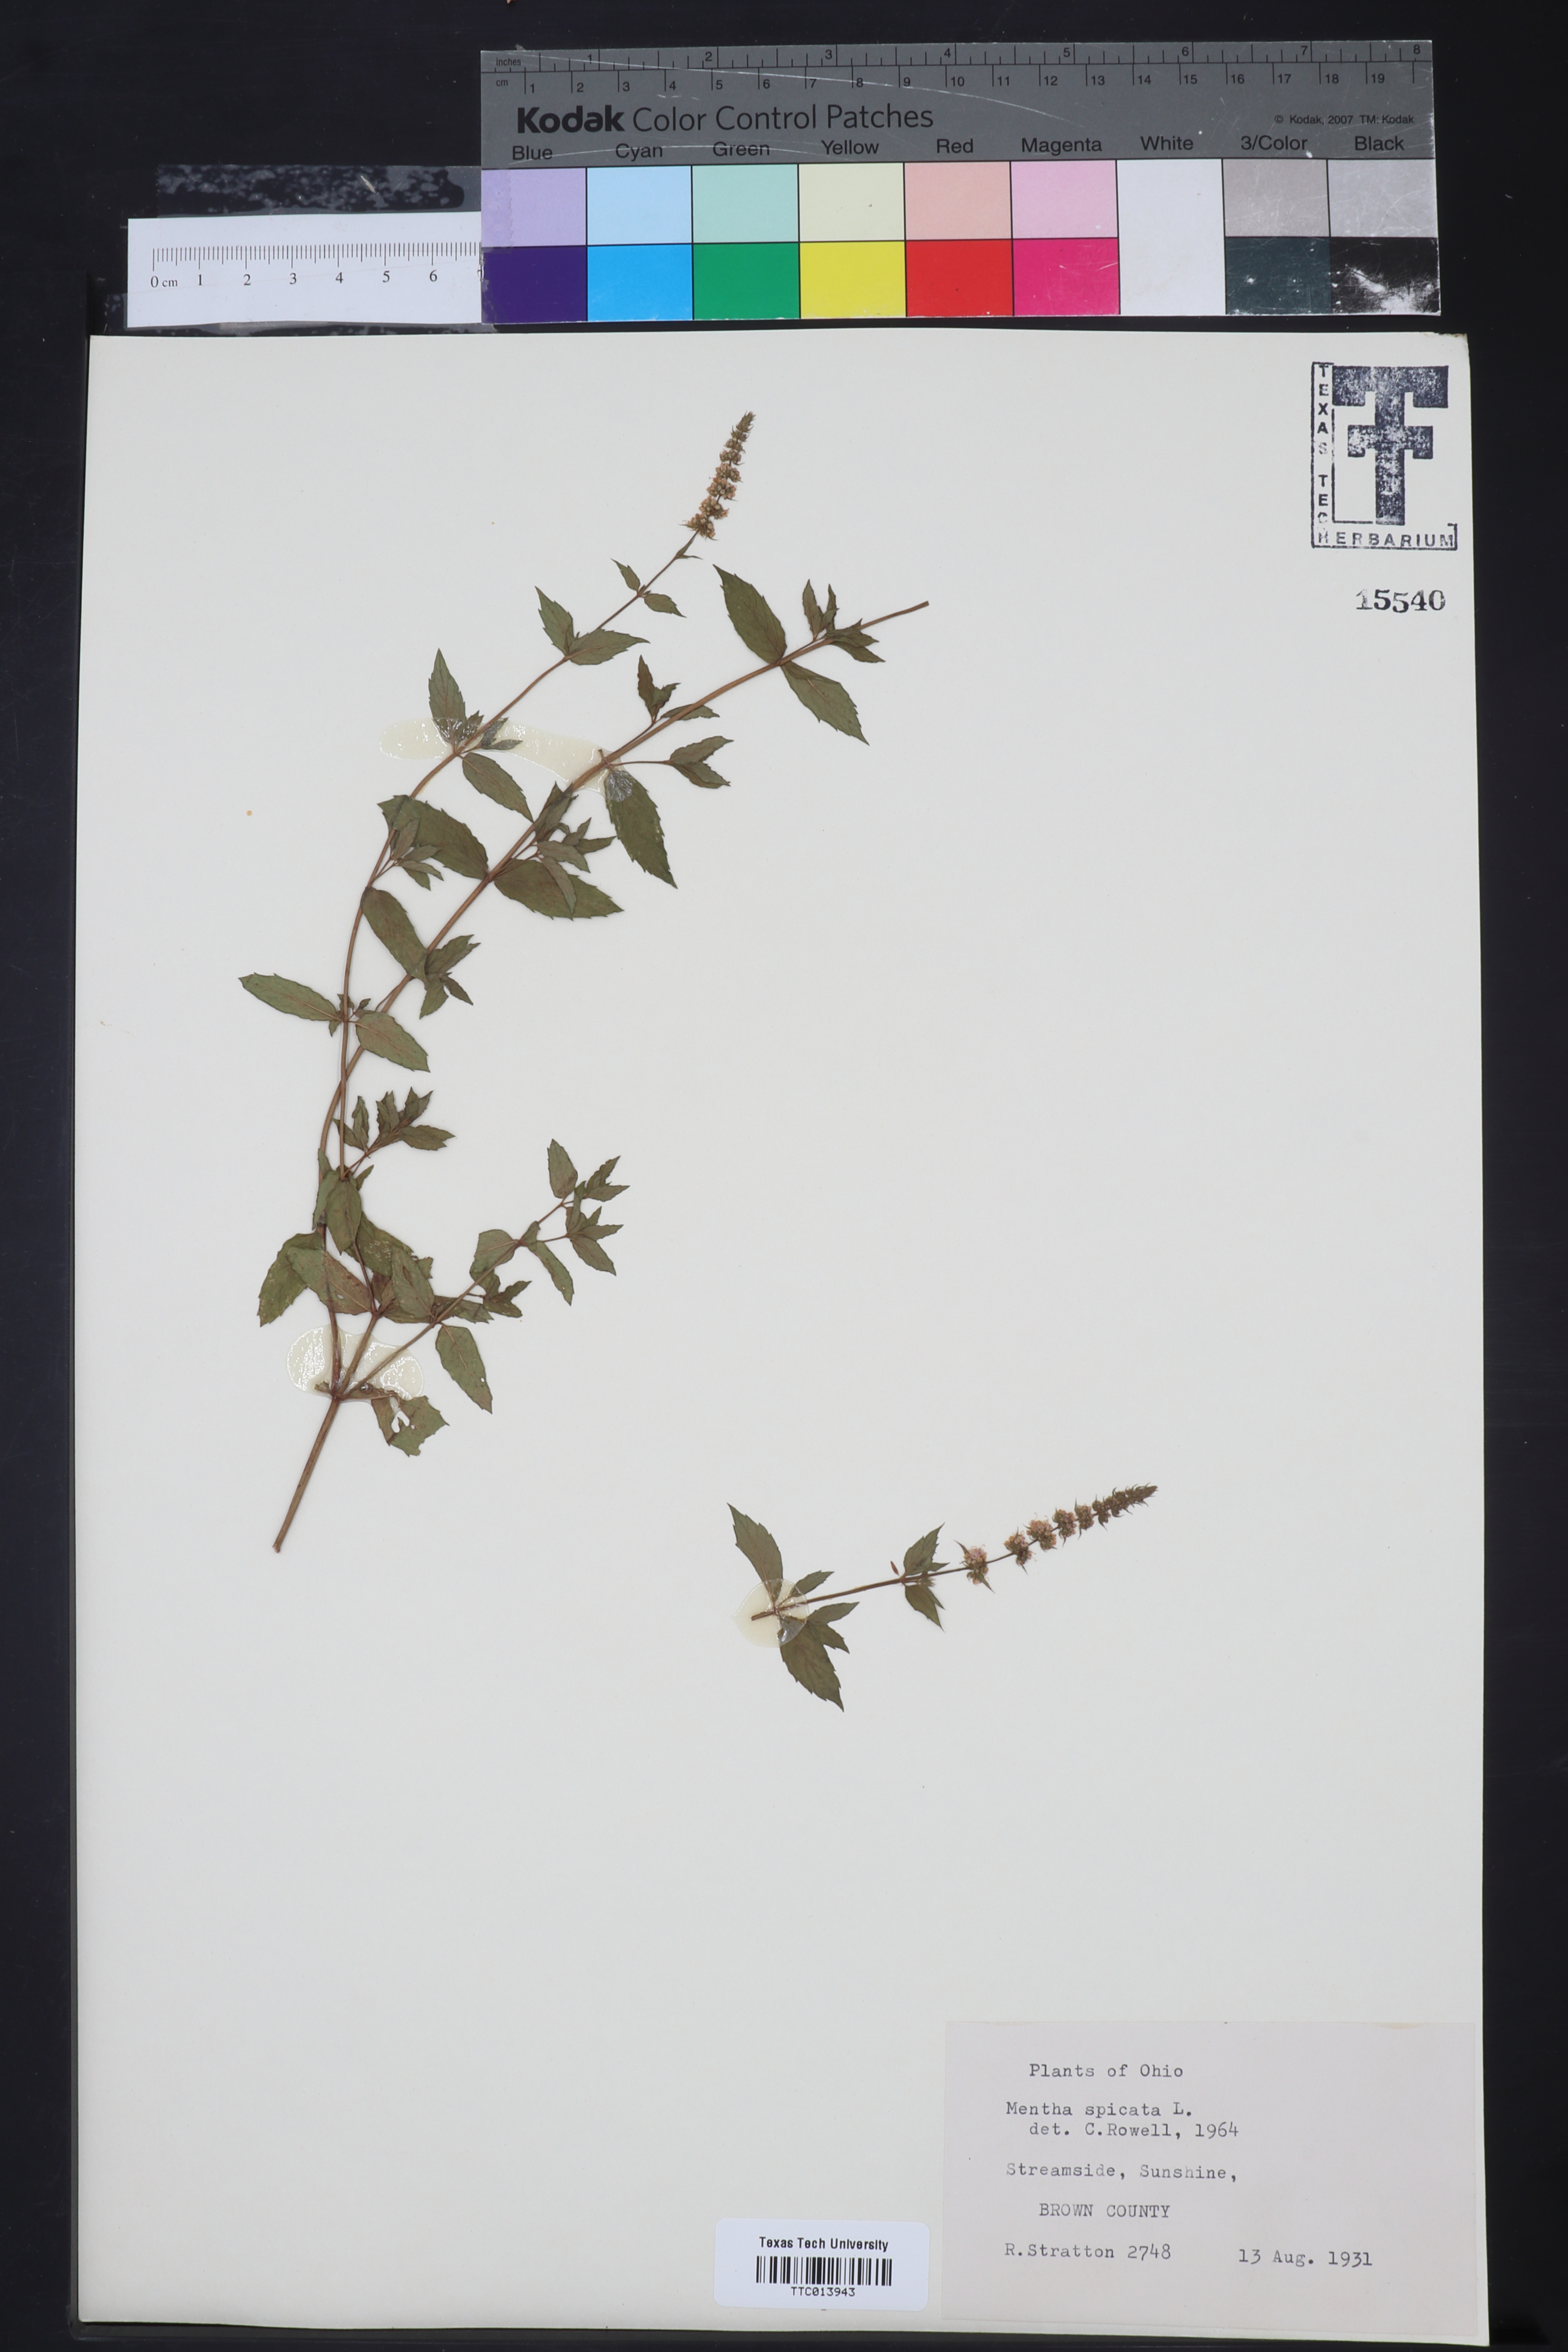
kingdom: Plantae
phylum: Tracheophyta
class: Magnoliopsida
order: Lamiales
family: Lamiaceae
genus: Mentha
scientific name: Mentha spicata
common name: Spearmint
